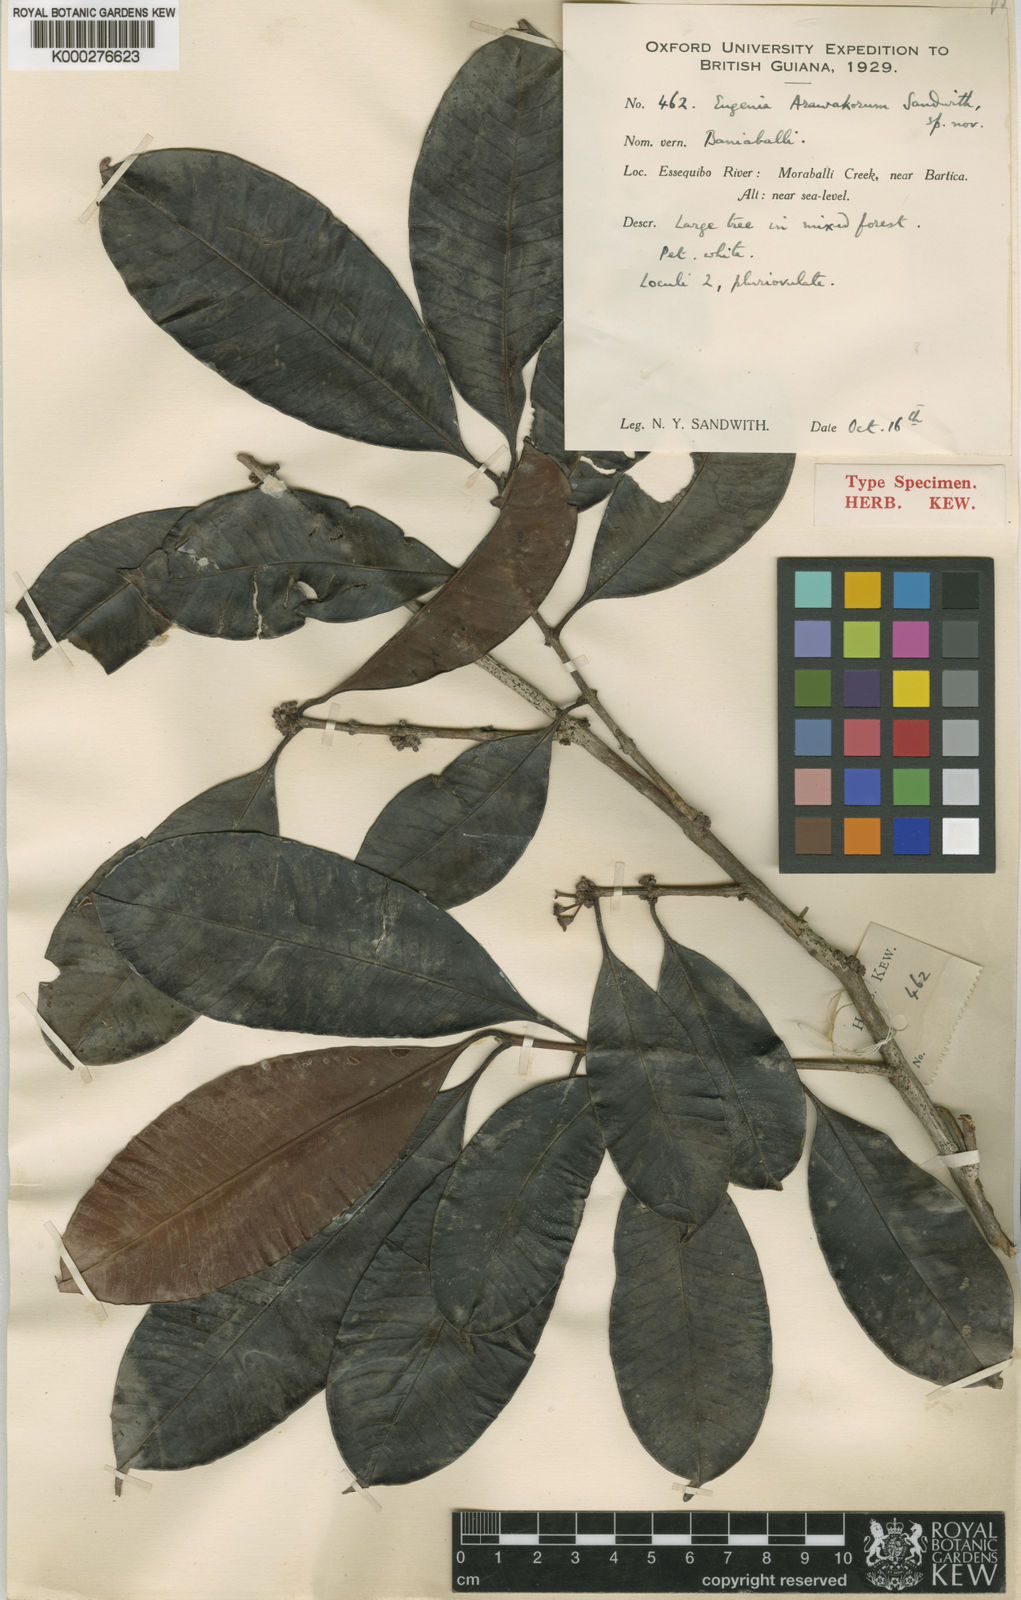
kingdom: Plantae
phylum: Tracheophyta
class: Magnoliopsida
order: Myrtales
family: Myrtaceae
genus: Eugenia
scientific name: Eugenia arawakorum
